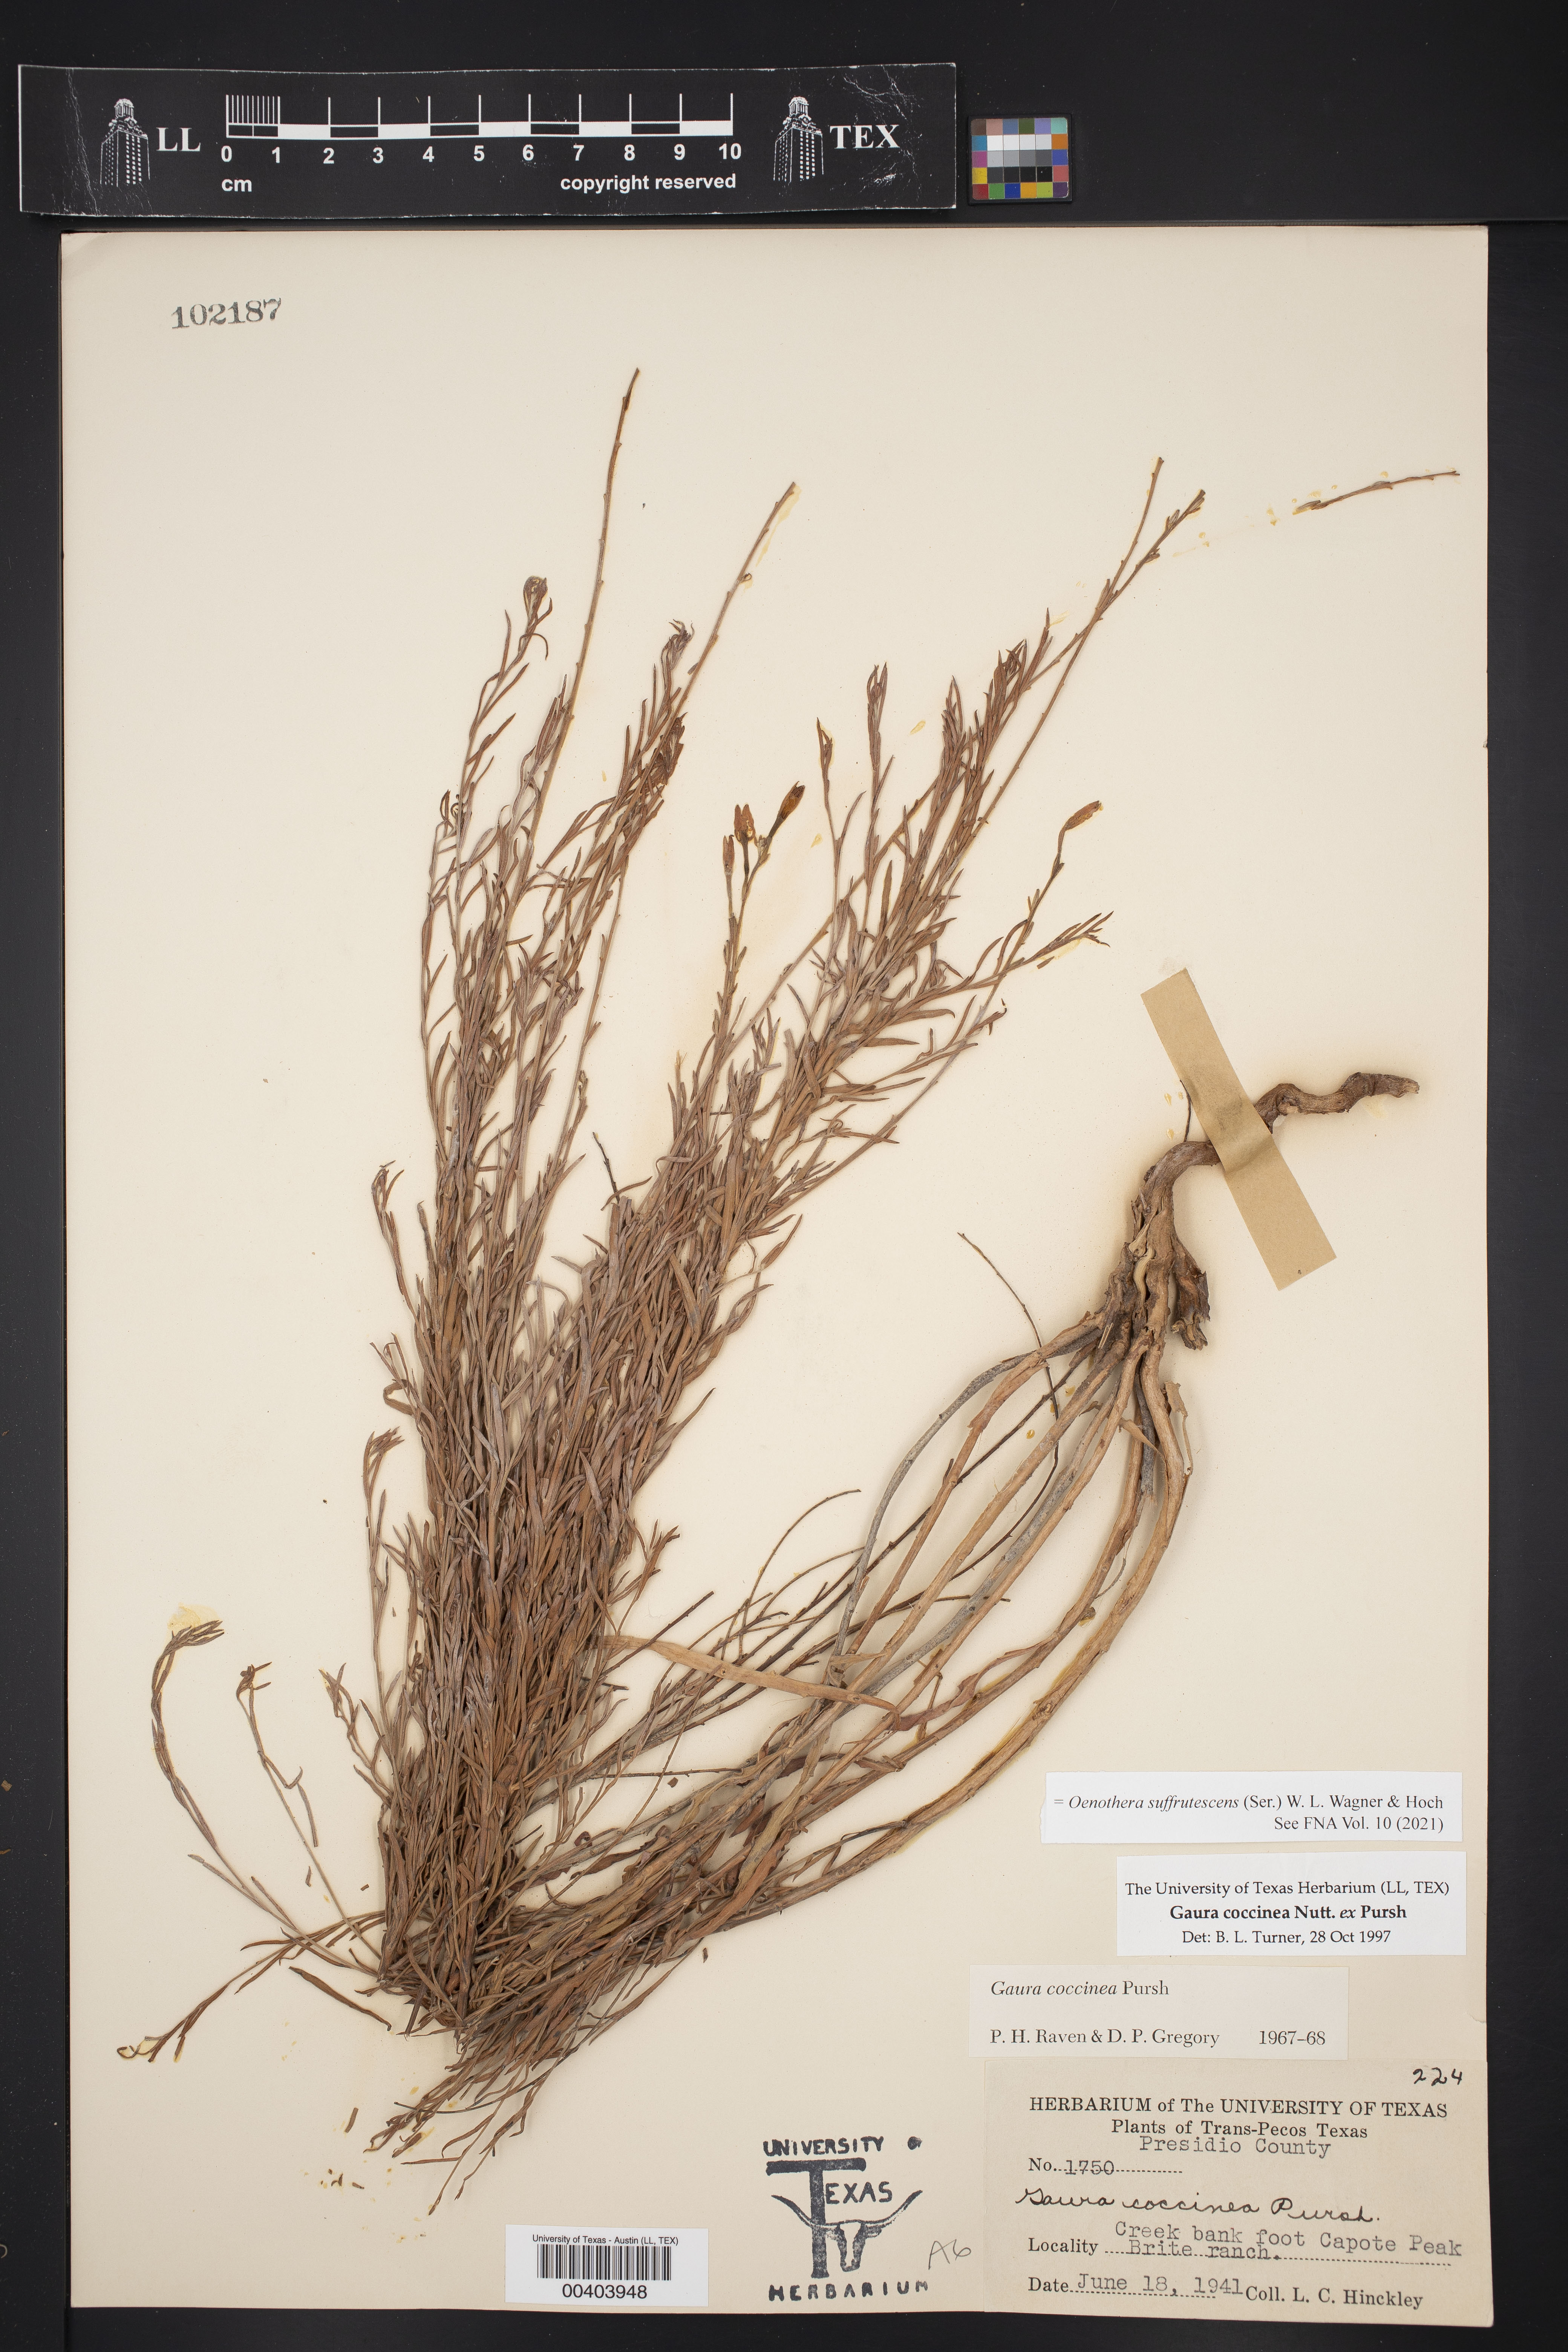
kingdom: Plantae
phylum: Tracheophyta
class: Magnoliopsida
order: Myrtales
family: Onagraceae
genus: Oenothera
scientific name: Oenothera suffrutescens
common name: Scarlet beeblossom
